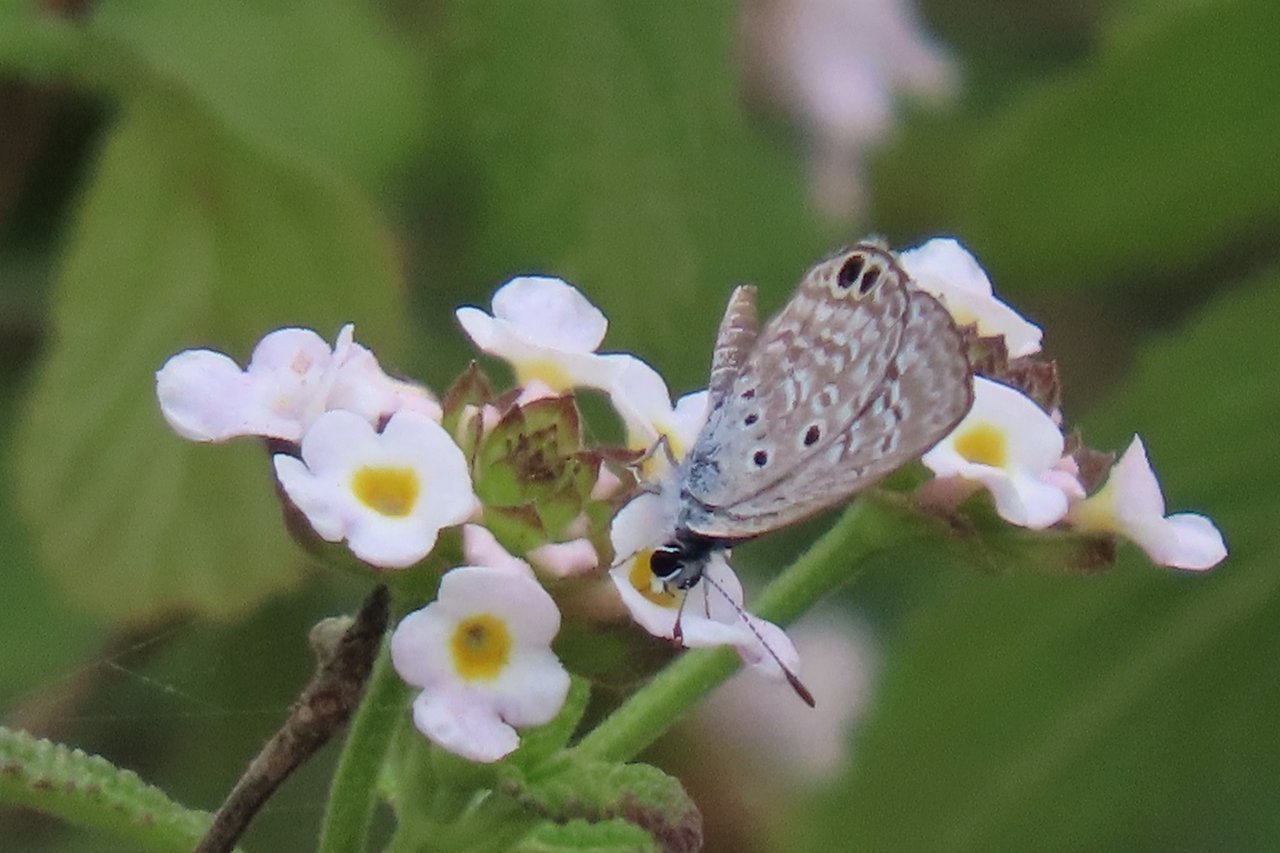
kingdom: Animalia
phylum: Arthropoda
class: Insecta
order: Lepidoptera
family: Lycaenidae
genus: Hemiargus
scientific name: Hemiargus ceraunus
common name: Ceraunus Blue
